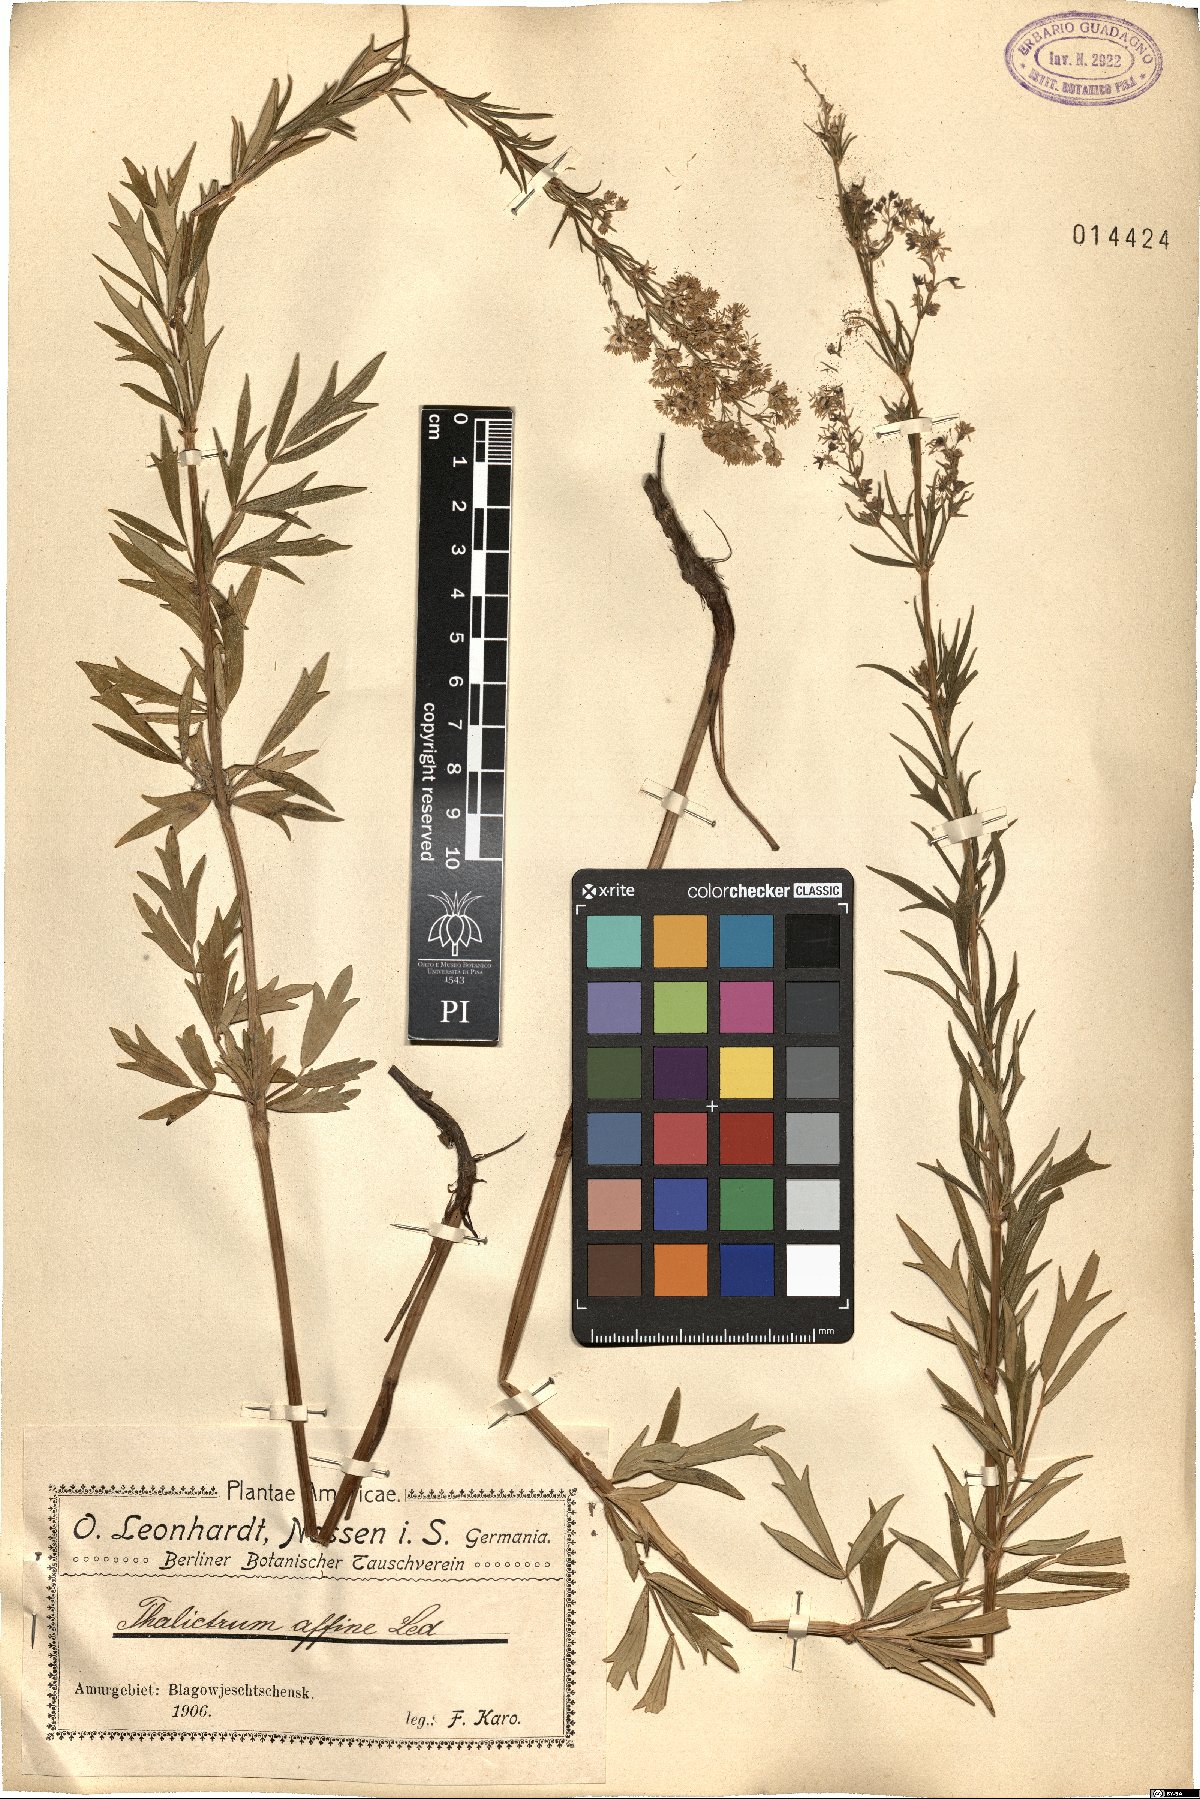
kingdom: Plantae
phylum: Tracheophyta
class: Magnoliopsida
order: Ranunculales
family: Ranunculaceae
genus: Thalictrum
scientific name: Thalictrum simplex
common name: Small meadow-rue
